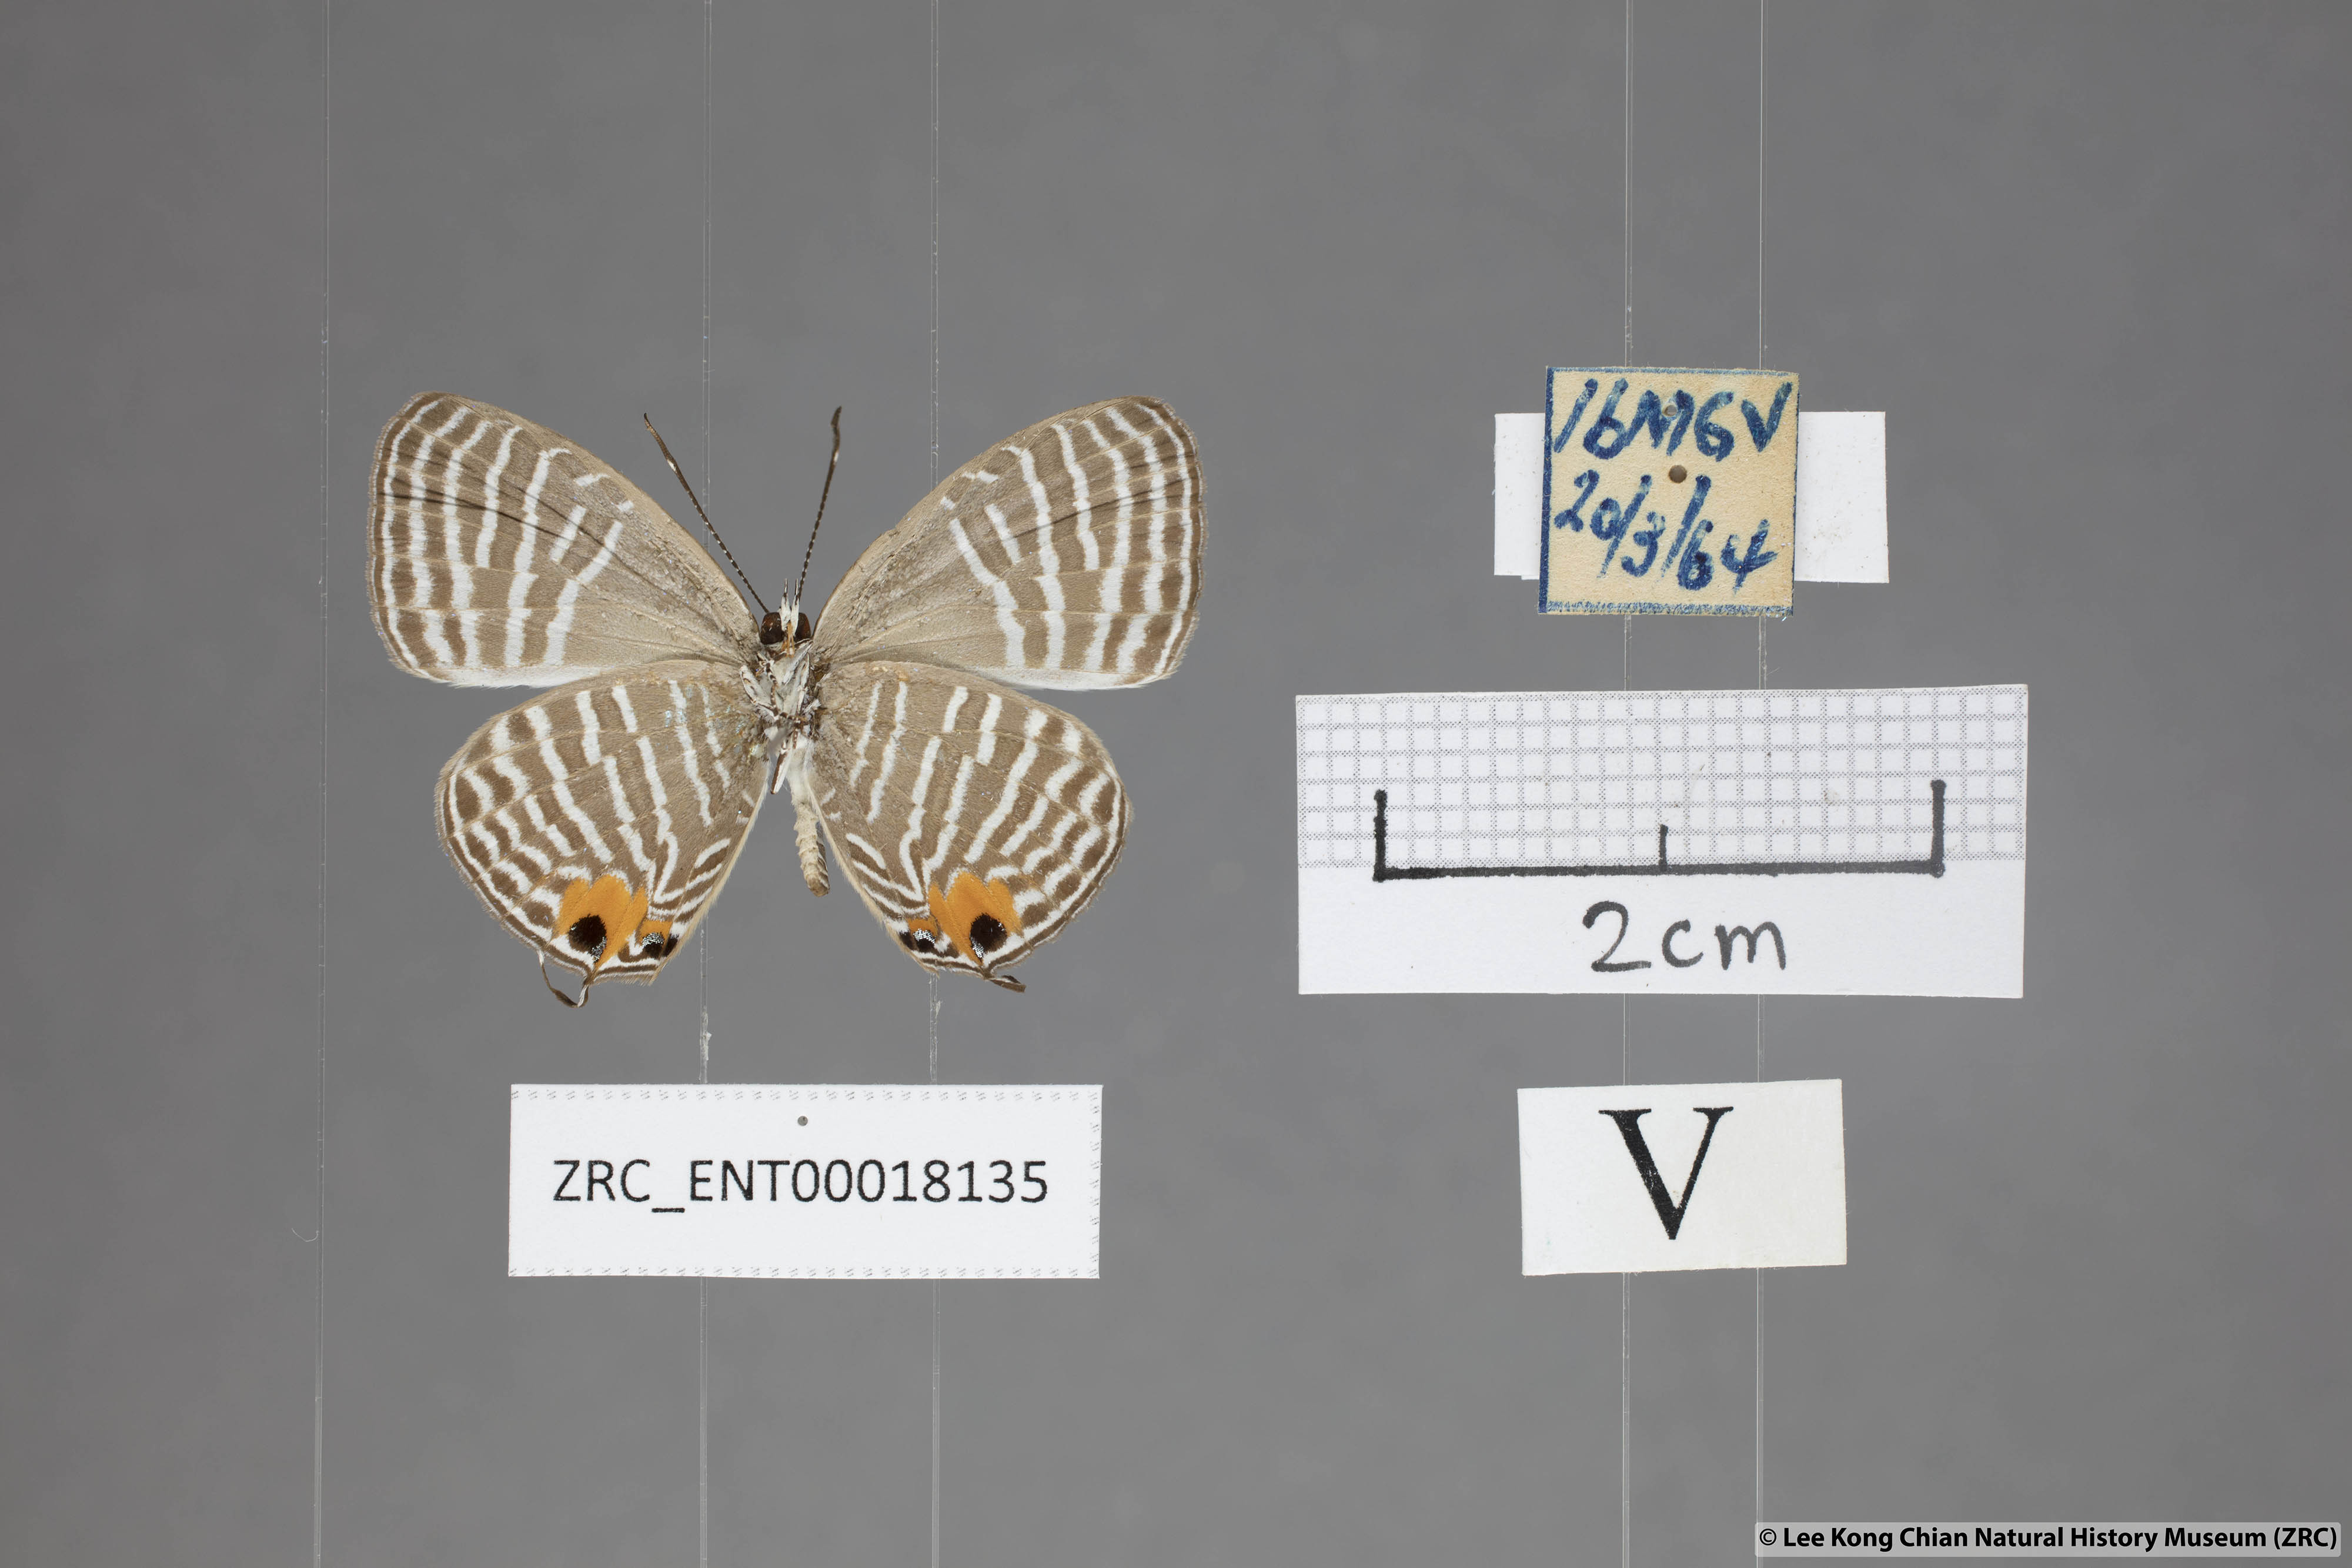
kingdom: Animalia
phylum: Arthropoda
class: Insecta
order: Lepidoptera
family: Lycaenidae
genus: Jamides
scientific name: Jamides malaccanus
